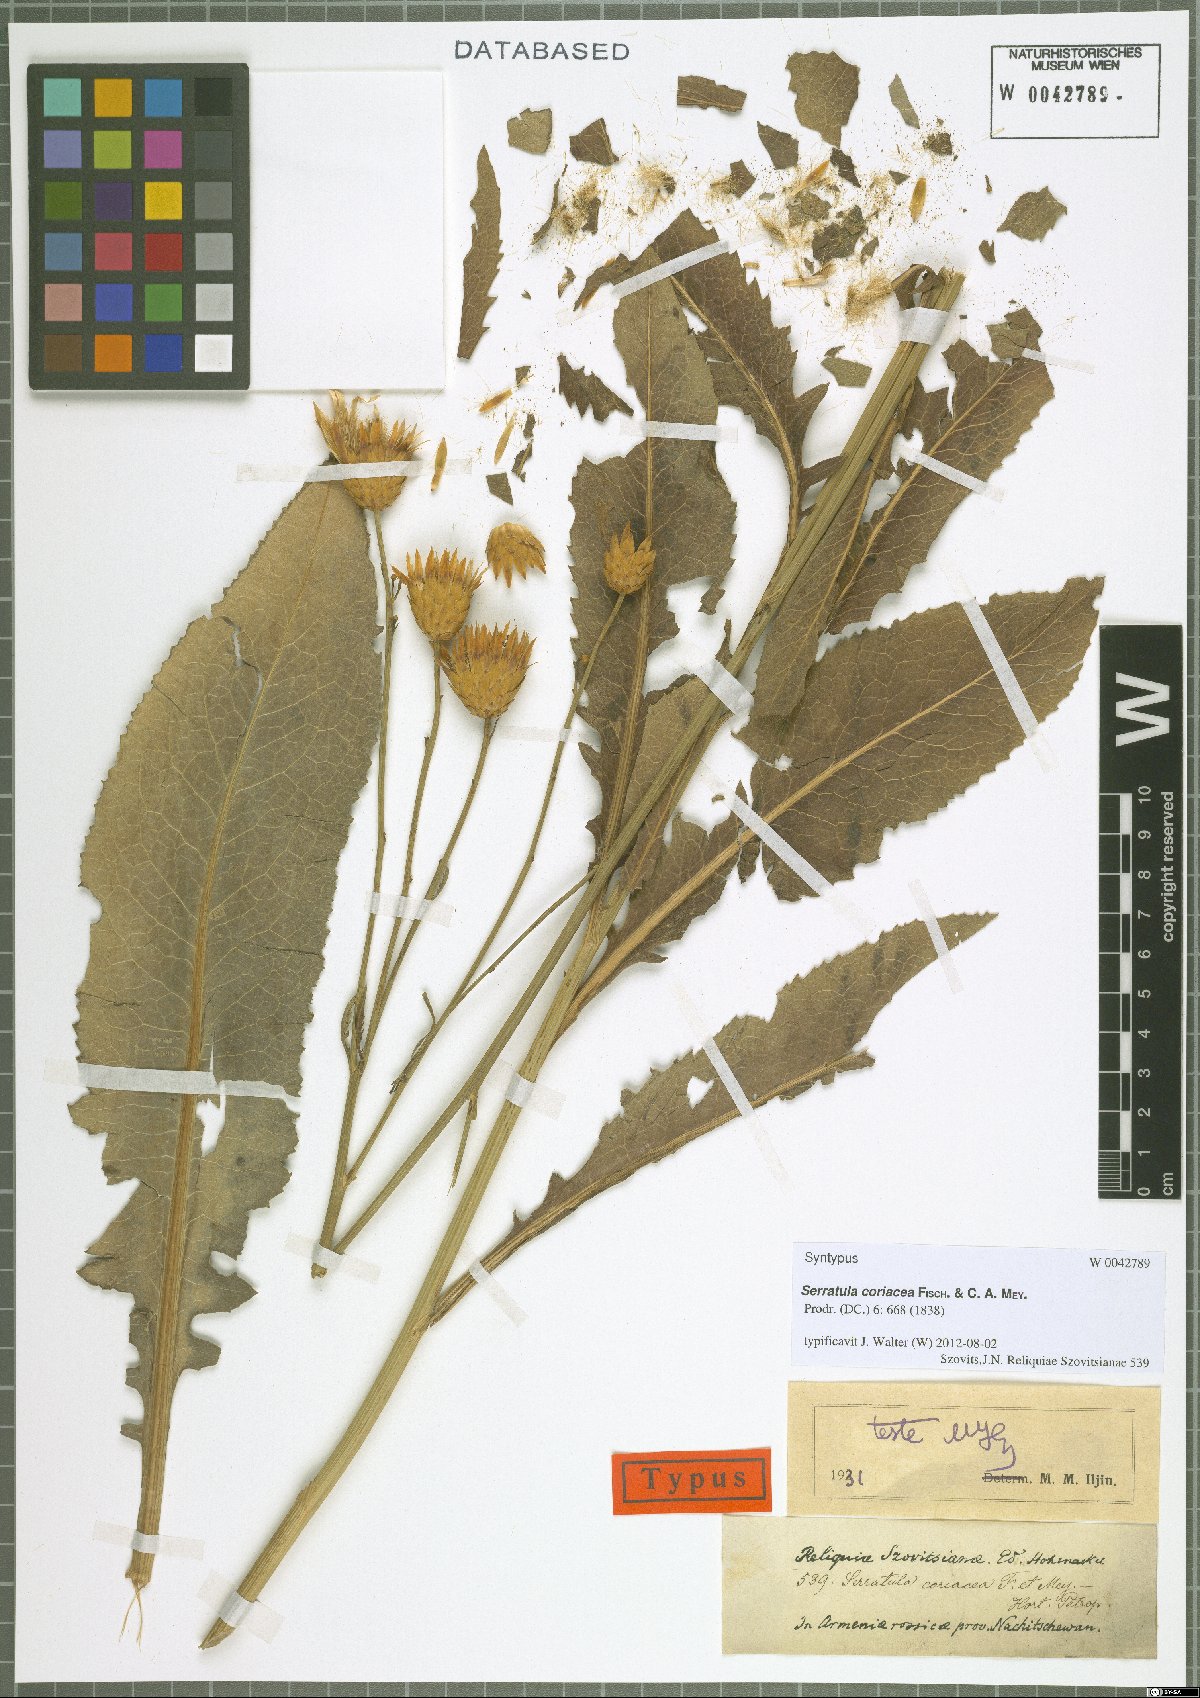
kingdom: Plantae
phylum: Tracheophyta
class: Magnoliopsida
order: Asterales
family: Asteraceae
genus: Serratula
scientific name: Serratula coriacea
